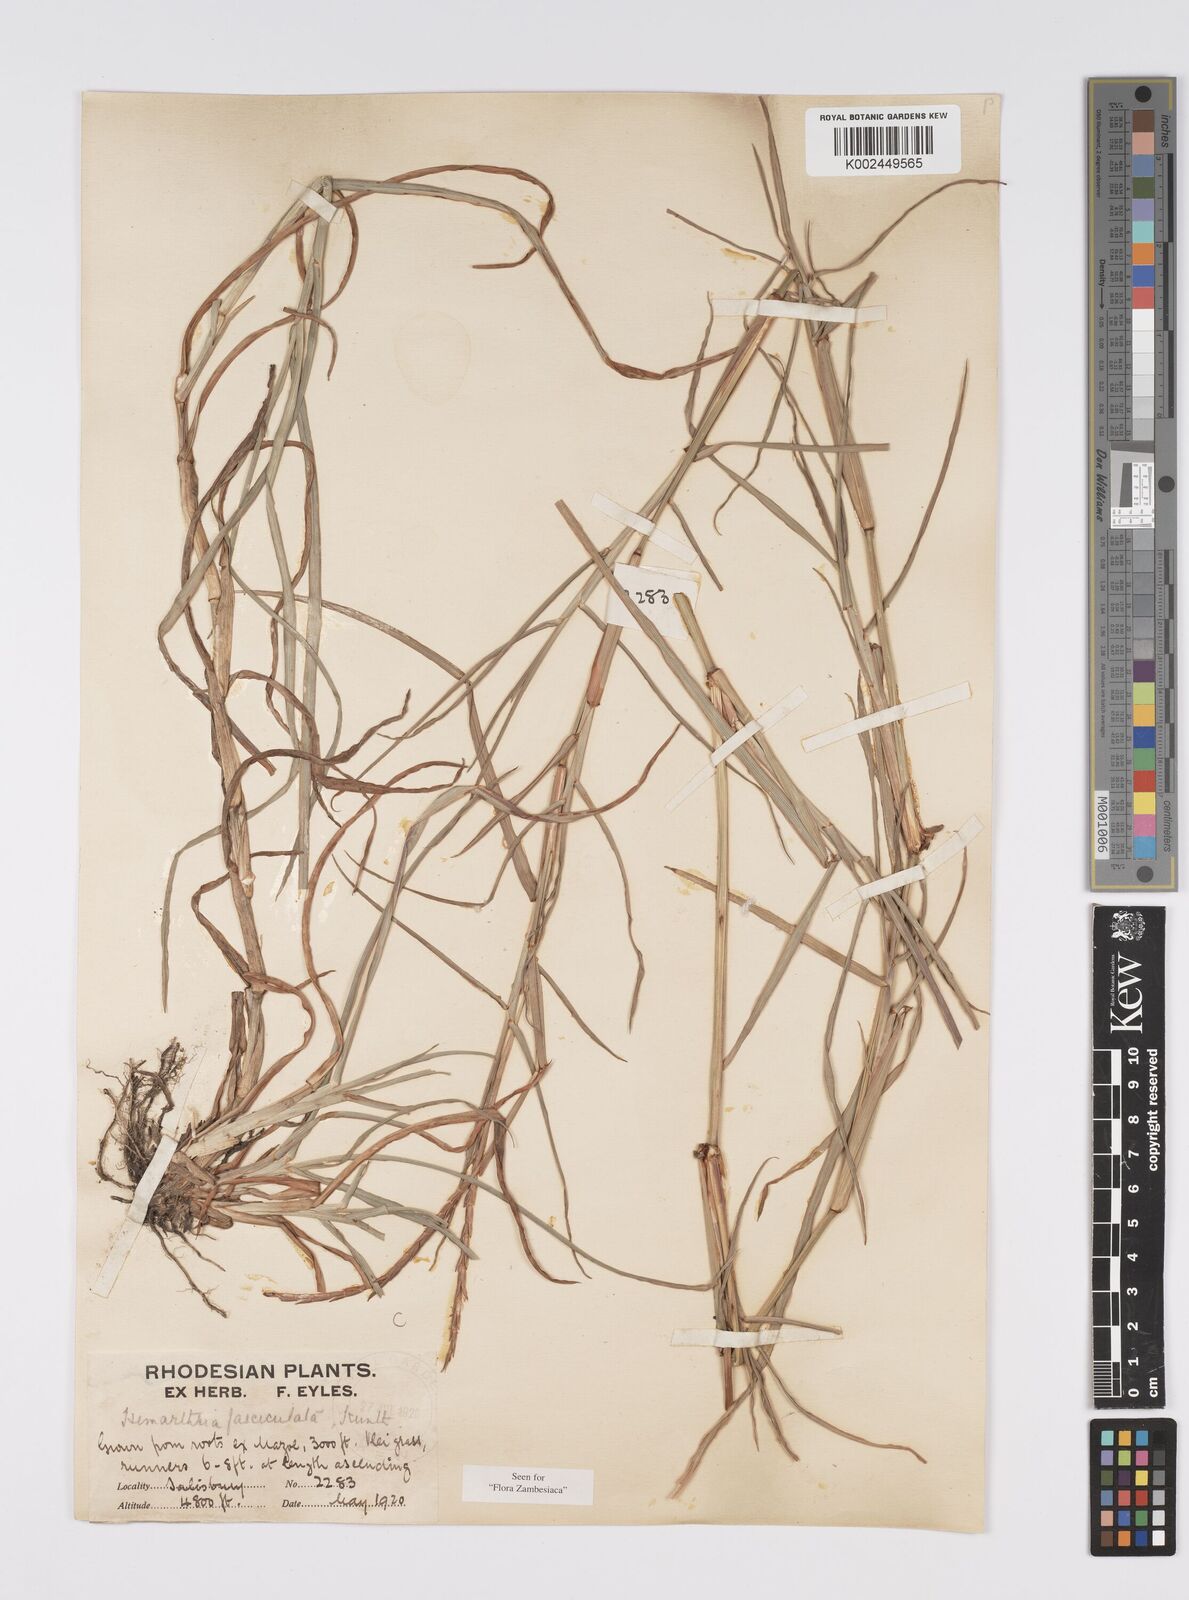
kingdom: Plantae
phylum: Tracheophyta
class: Liliopsida
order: Poales
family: Poaceae
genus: Hemarthria
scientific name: Hemarthria altissima
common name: African jointgrass
